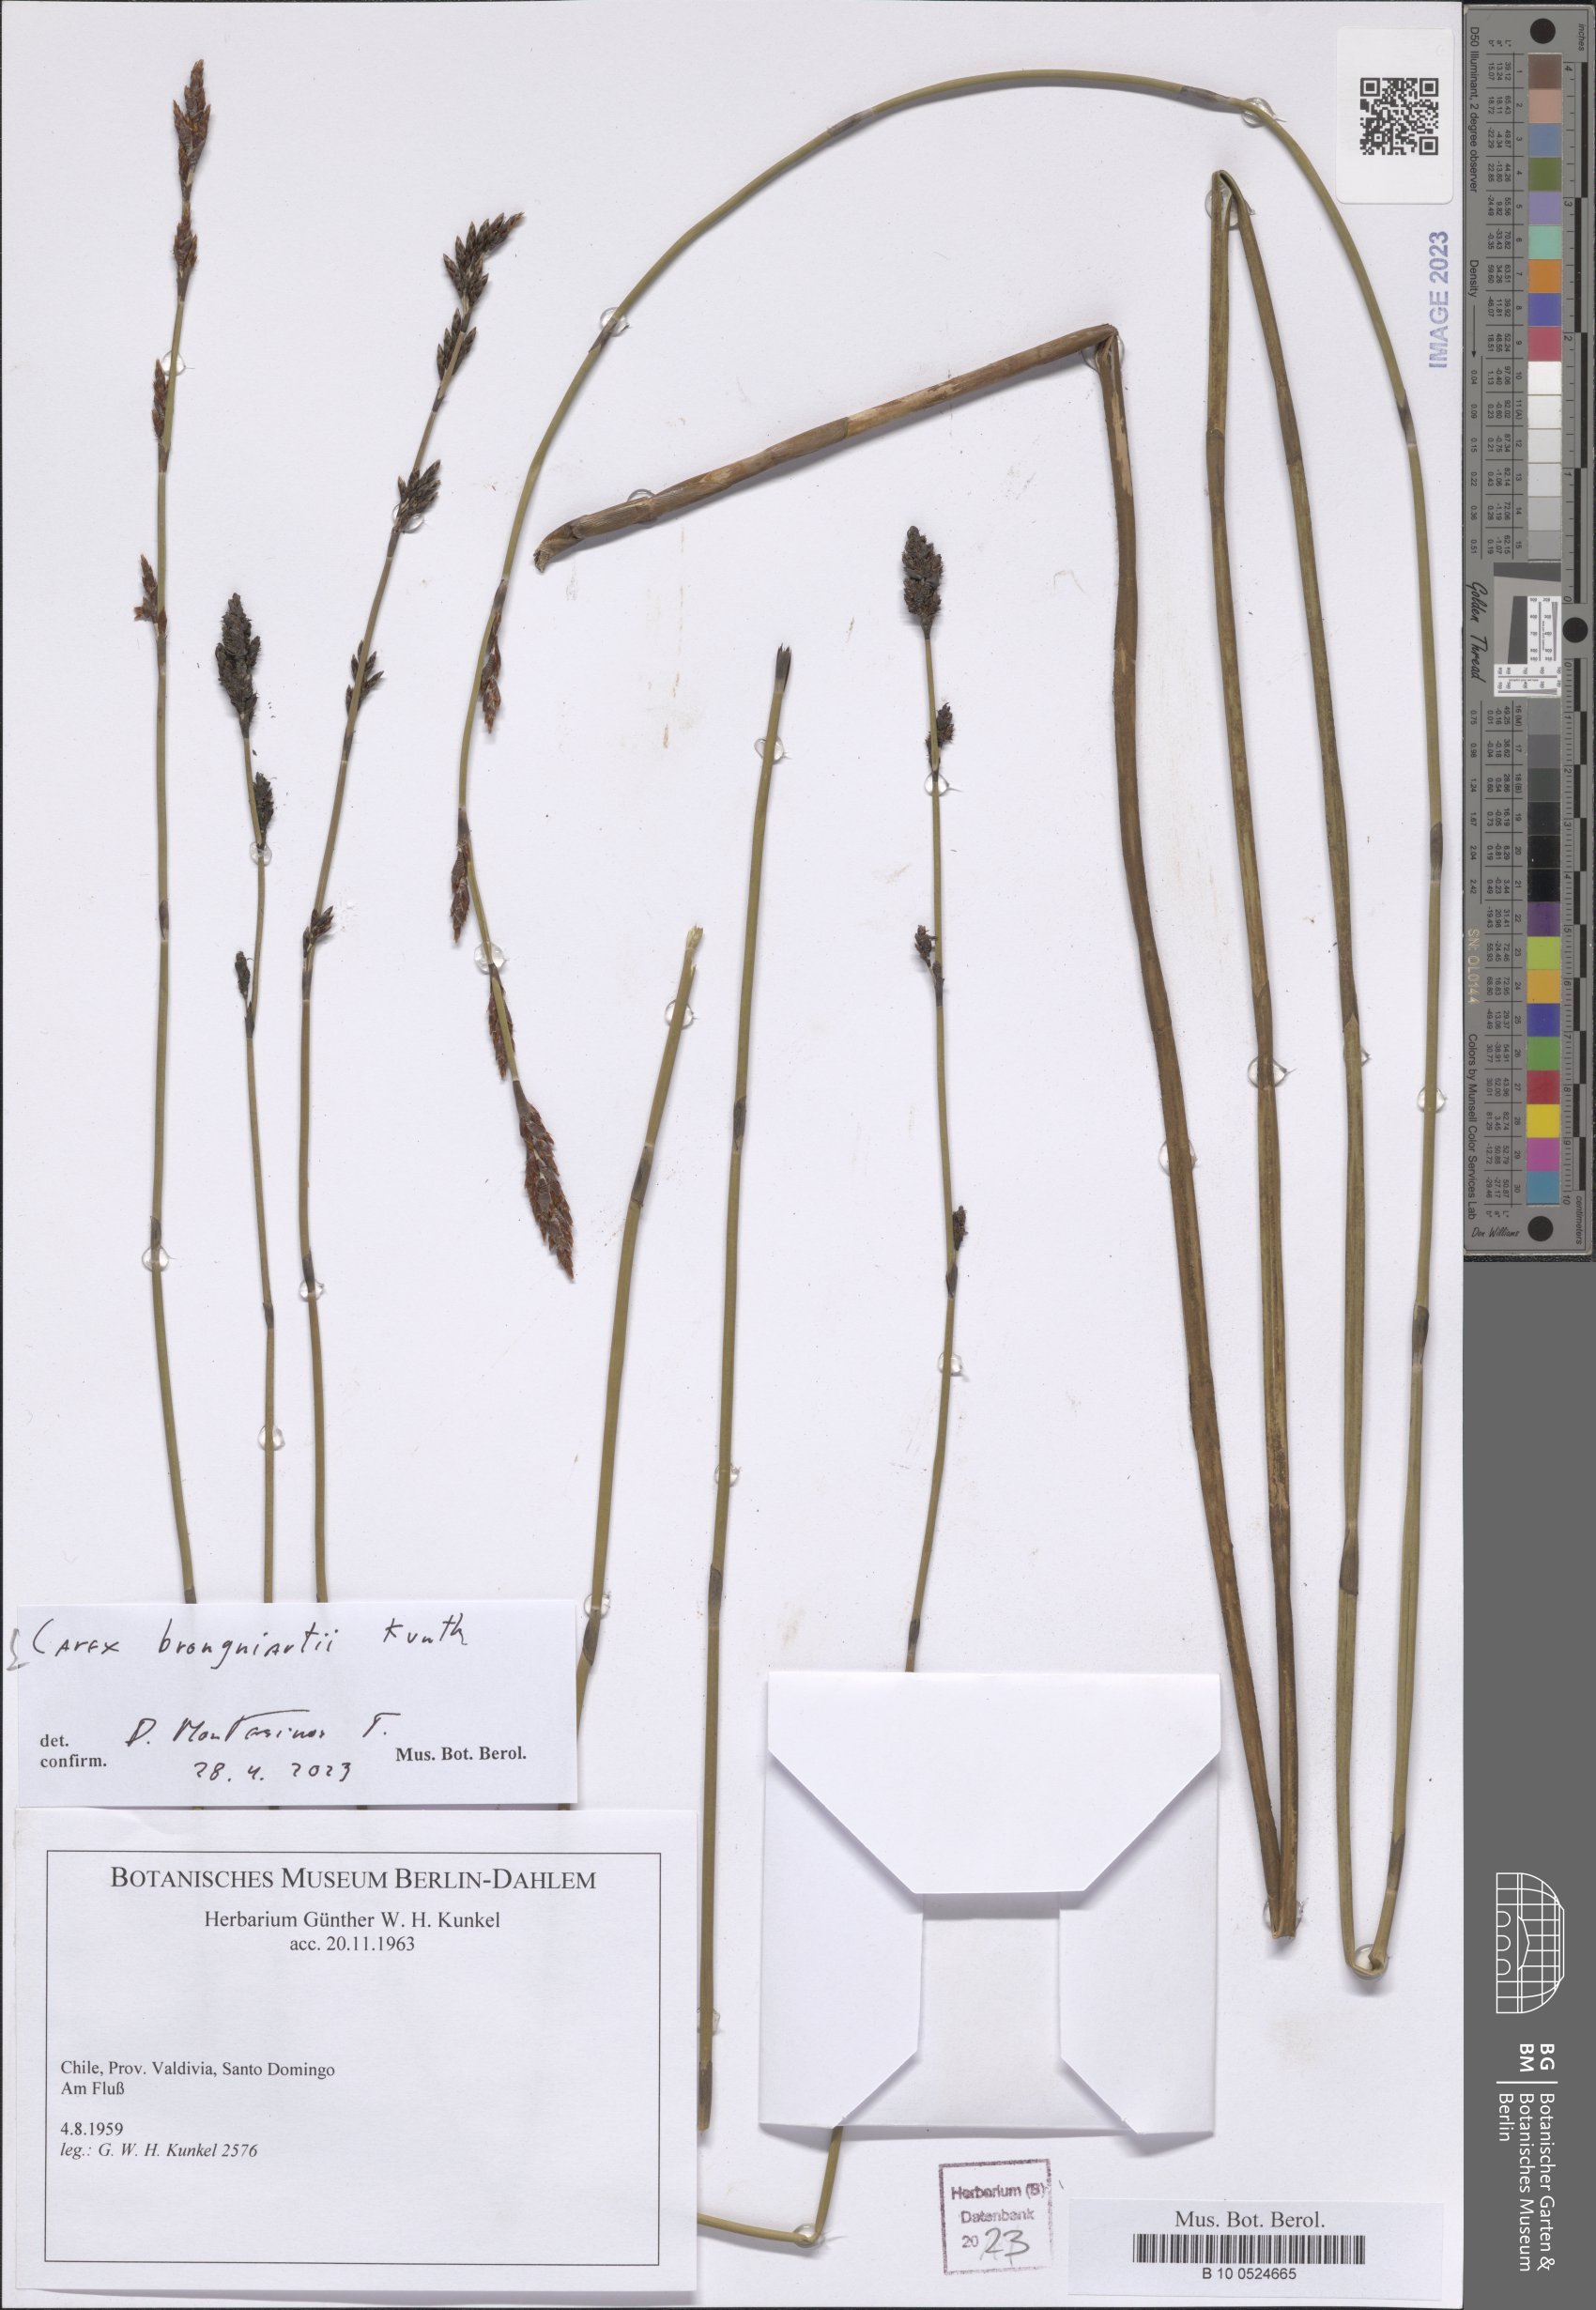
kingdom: Plantae
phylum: Tracheophyta
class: Liliopsida
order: Poales
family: Cyperaceae
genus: Carex
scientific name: Carex brongniartii
